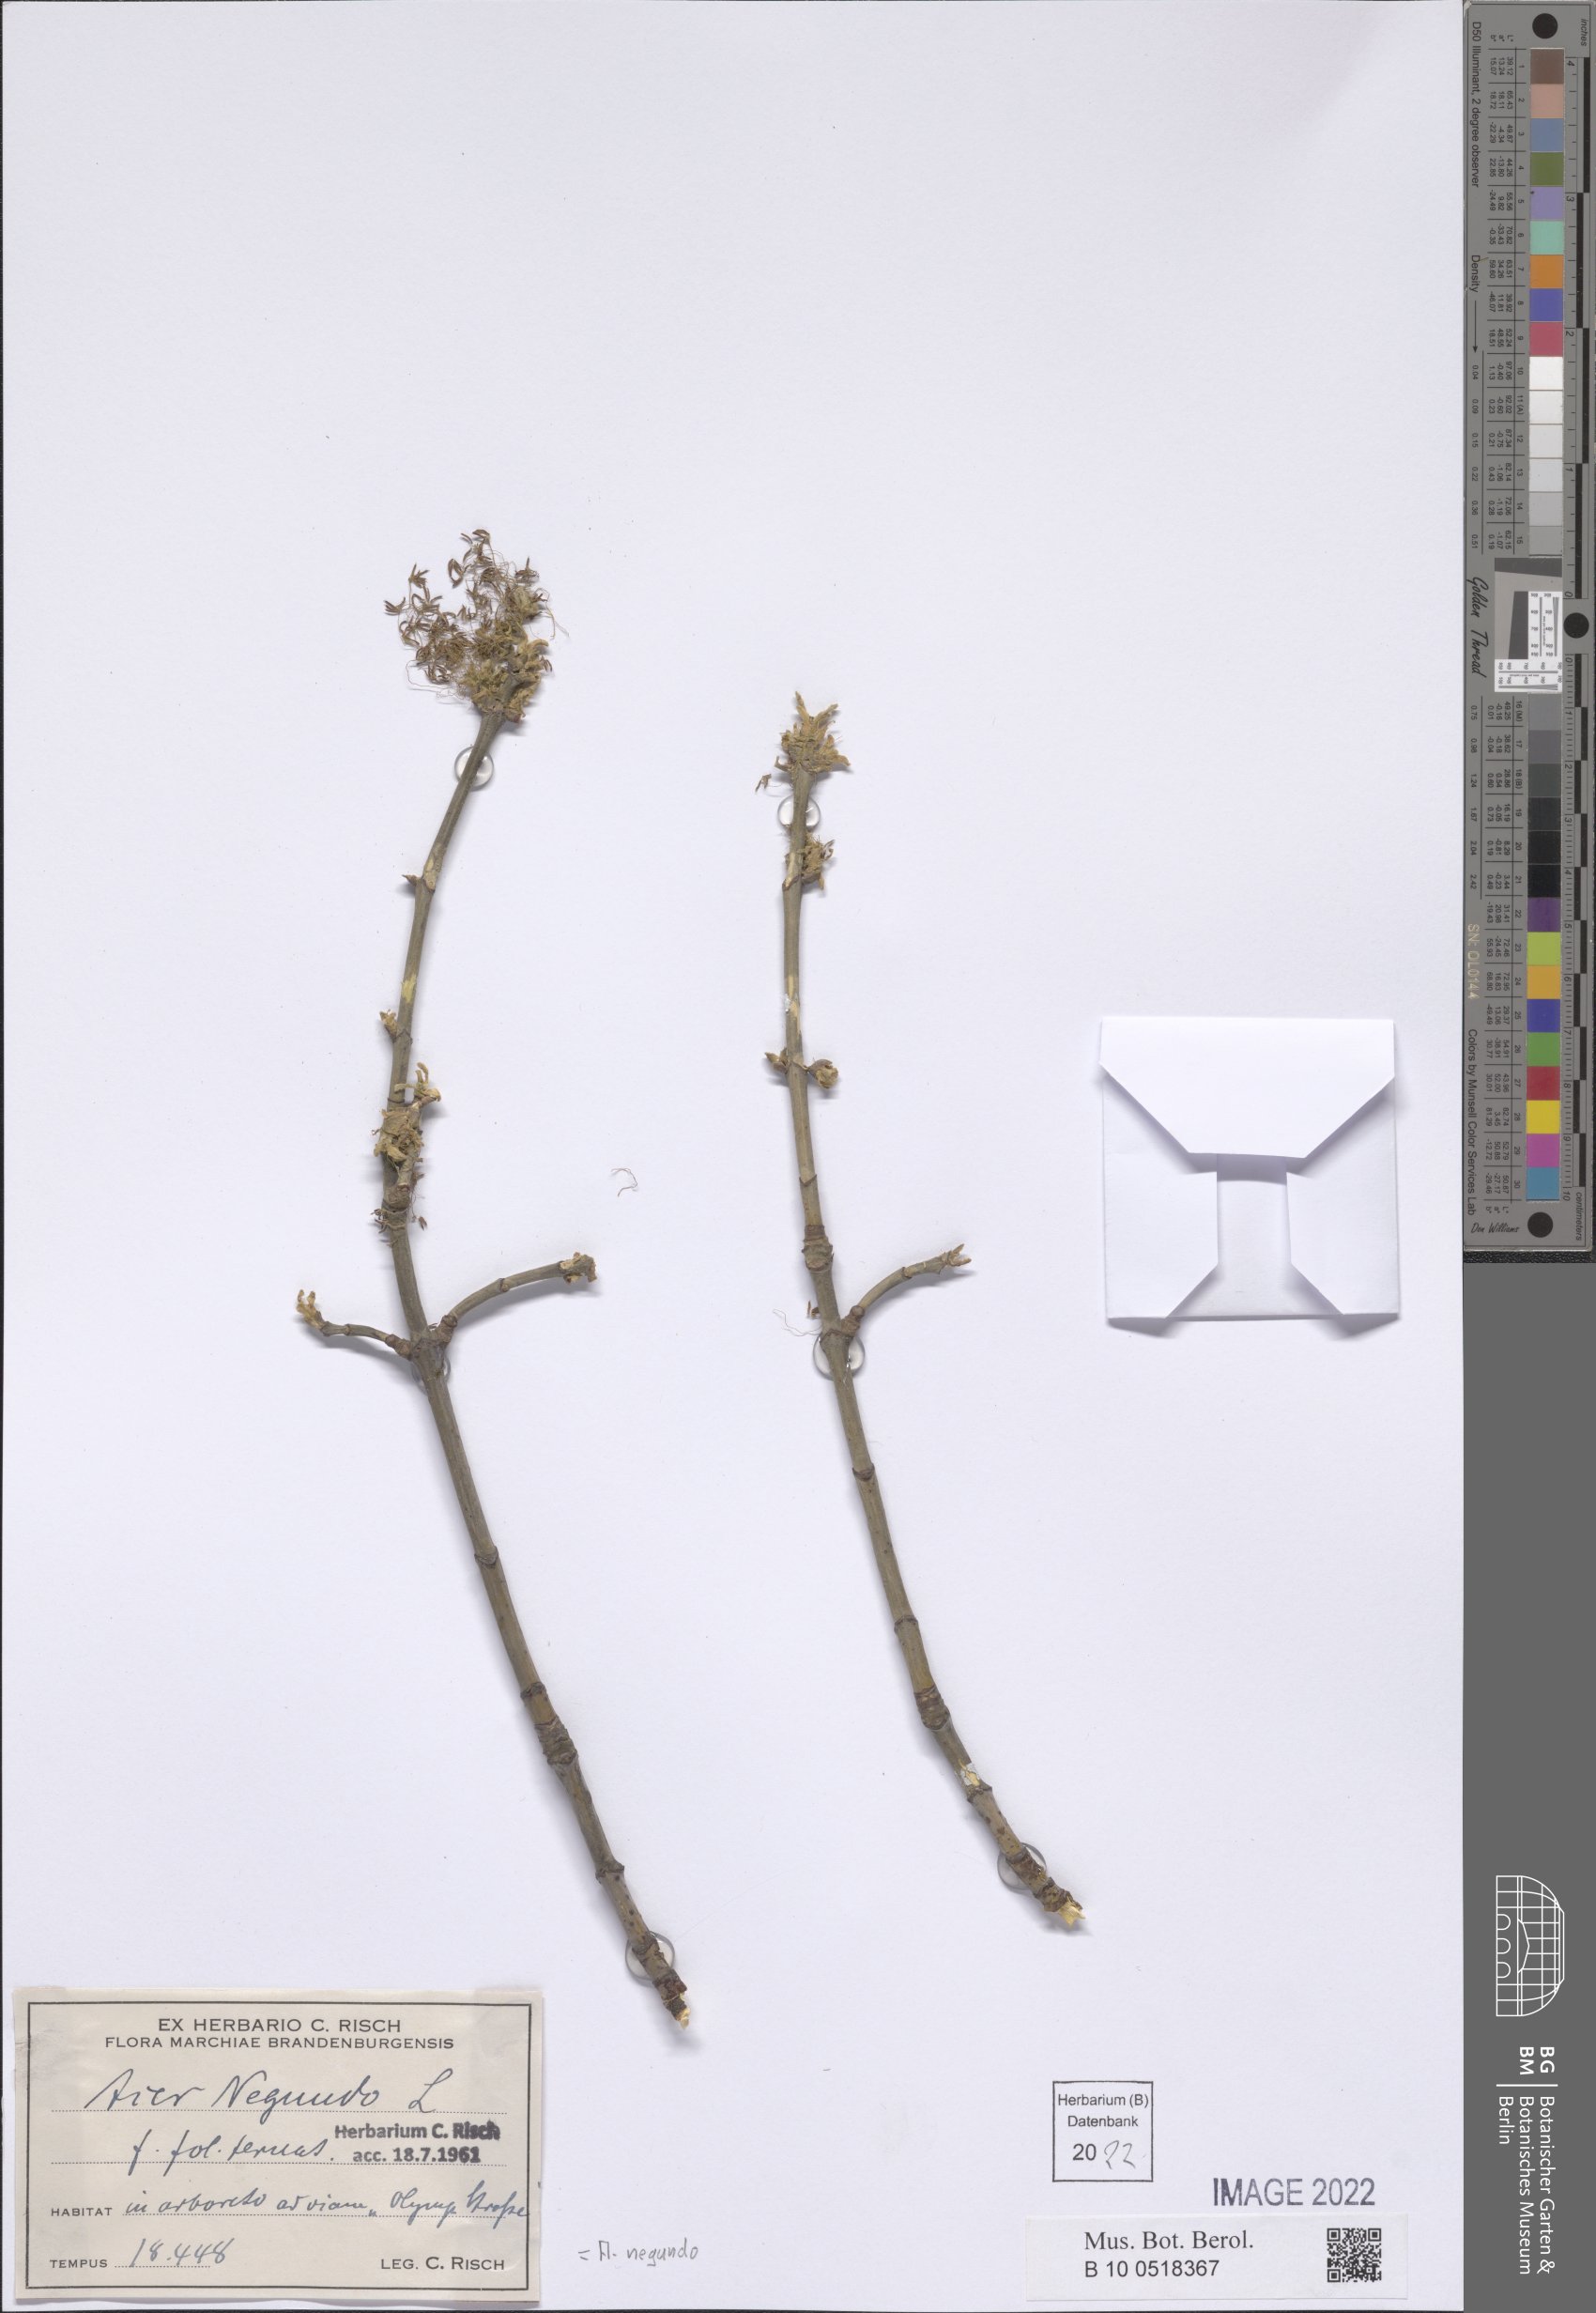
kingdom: Plantae
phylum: Tracheophyta
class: Magnoliopsida
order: Sapindales
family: Sapindaceae
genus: Acer
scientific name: Acer negundo
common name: Ashleaf maple
